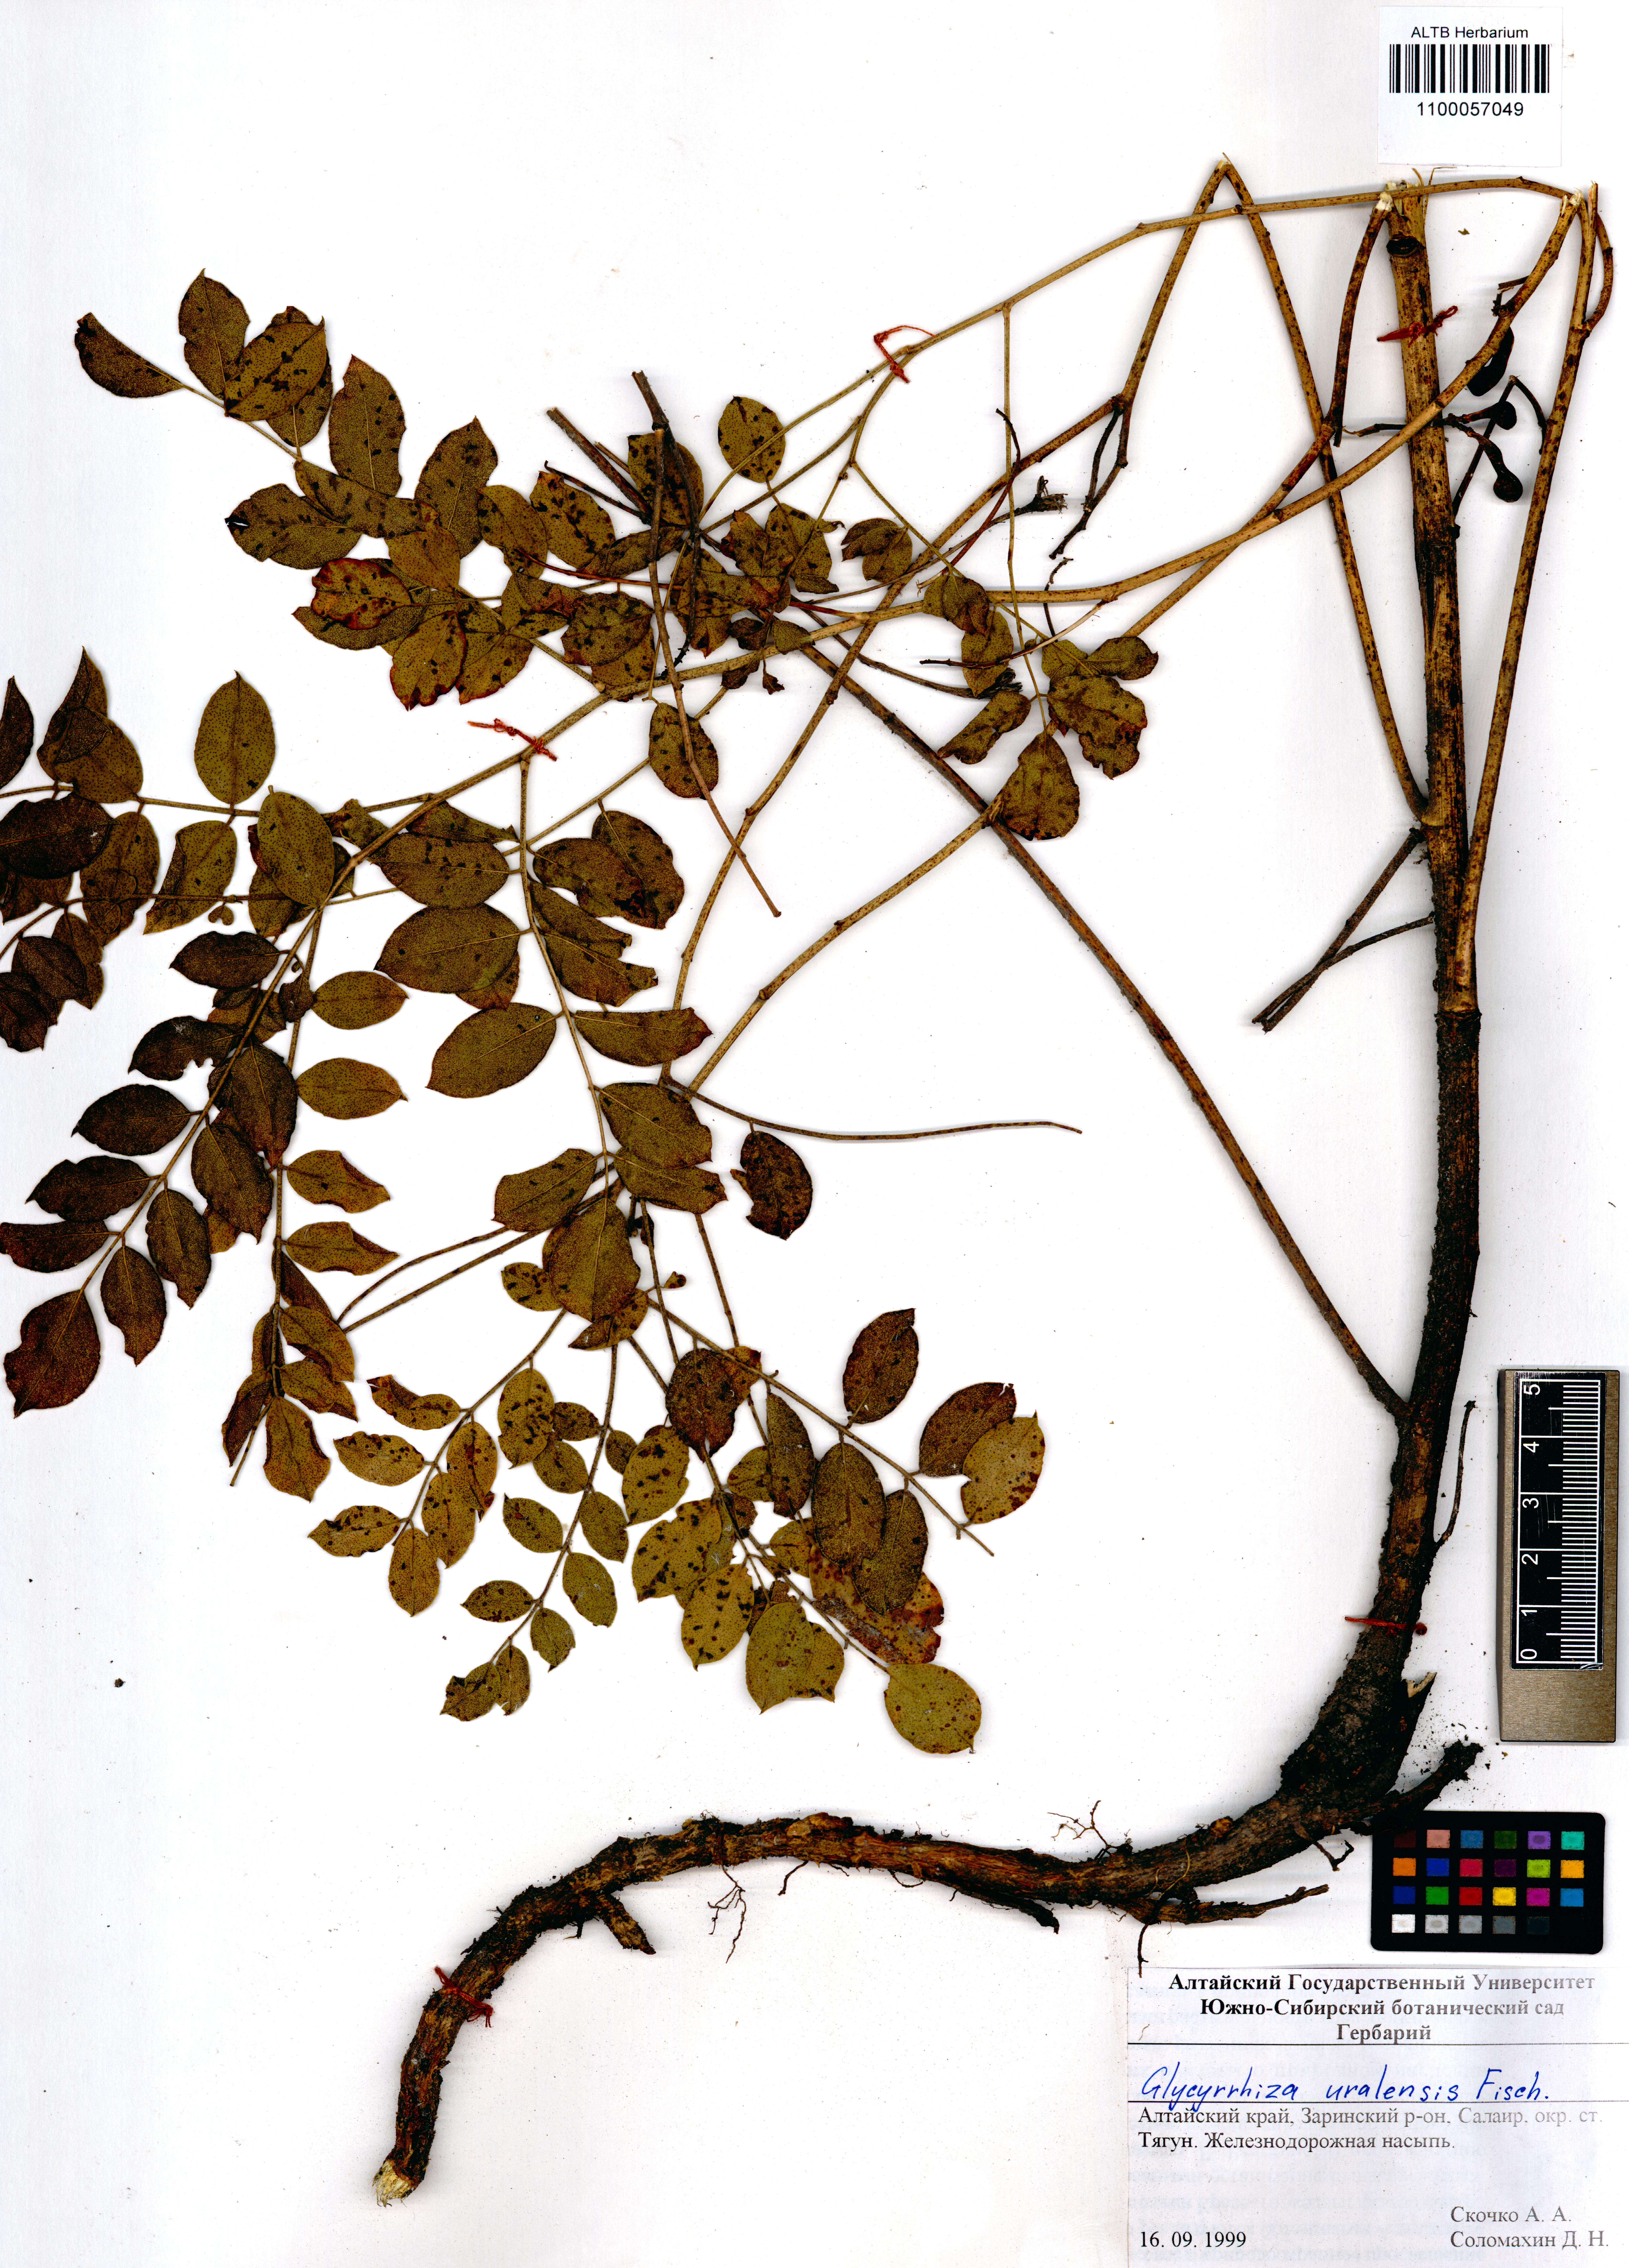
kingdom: Plantae
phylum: Tracheophyta
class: Magnoliopsida
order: Fabales
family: Fabaceae
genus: Glycyrrhiza
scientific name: Glycyrrhiza uralensis
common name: Chinese licorice
